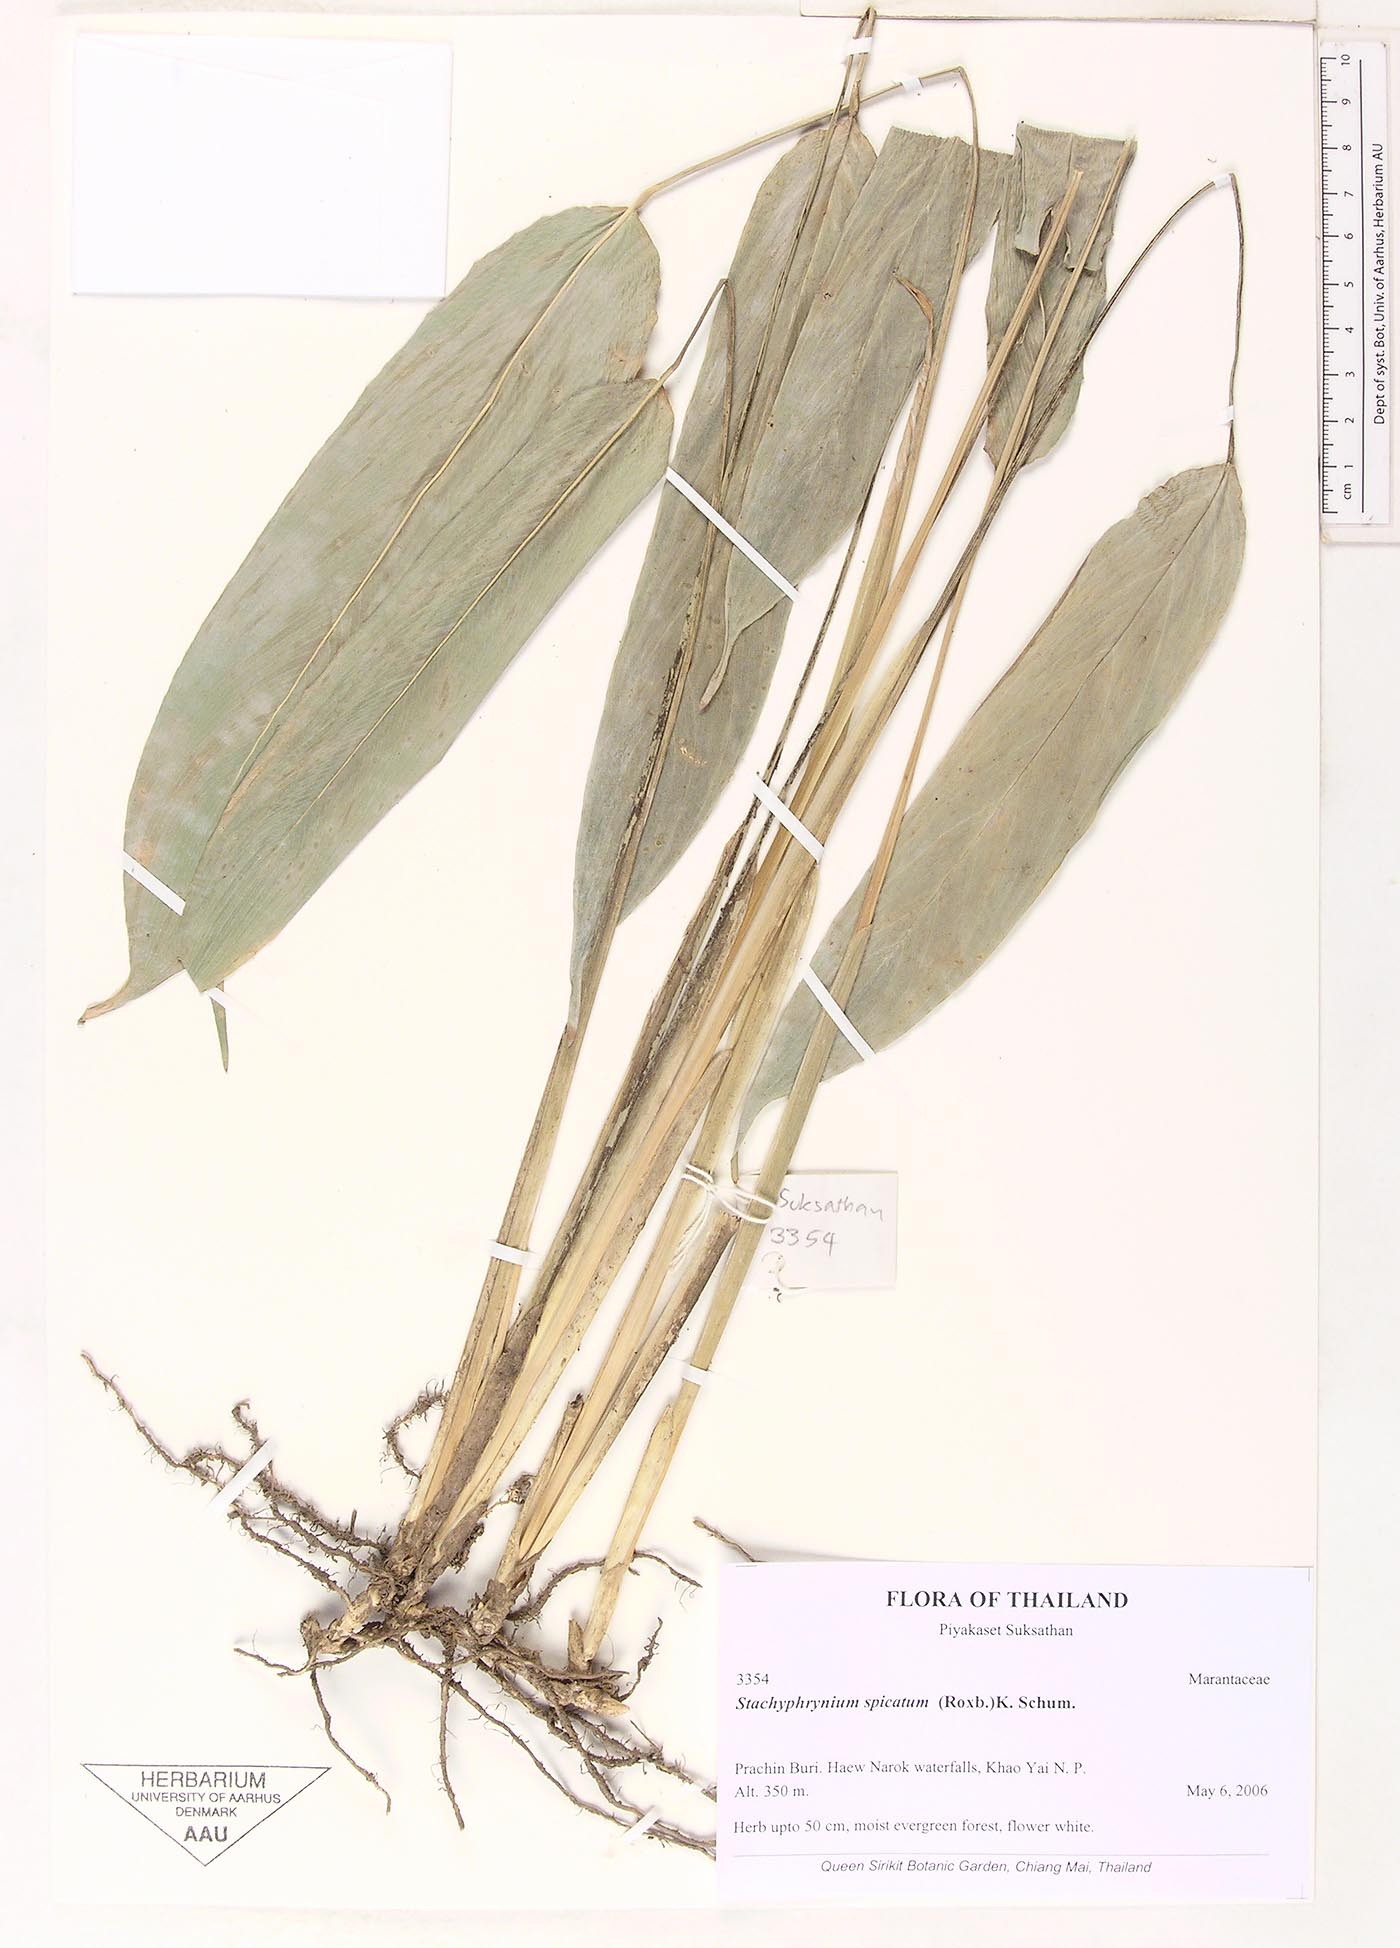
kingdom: Plantae
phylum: Tracheophyta
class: Liliopsida
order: Zingiberales
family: Marantaceae
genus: Stachyphrynium
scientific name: Stachyphrynium spicatum
